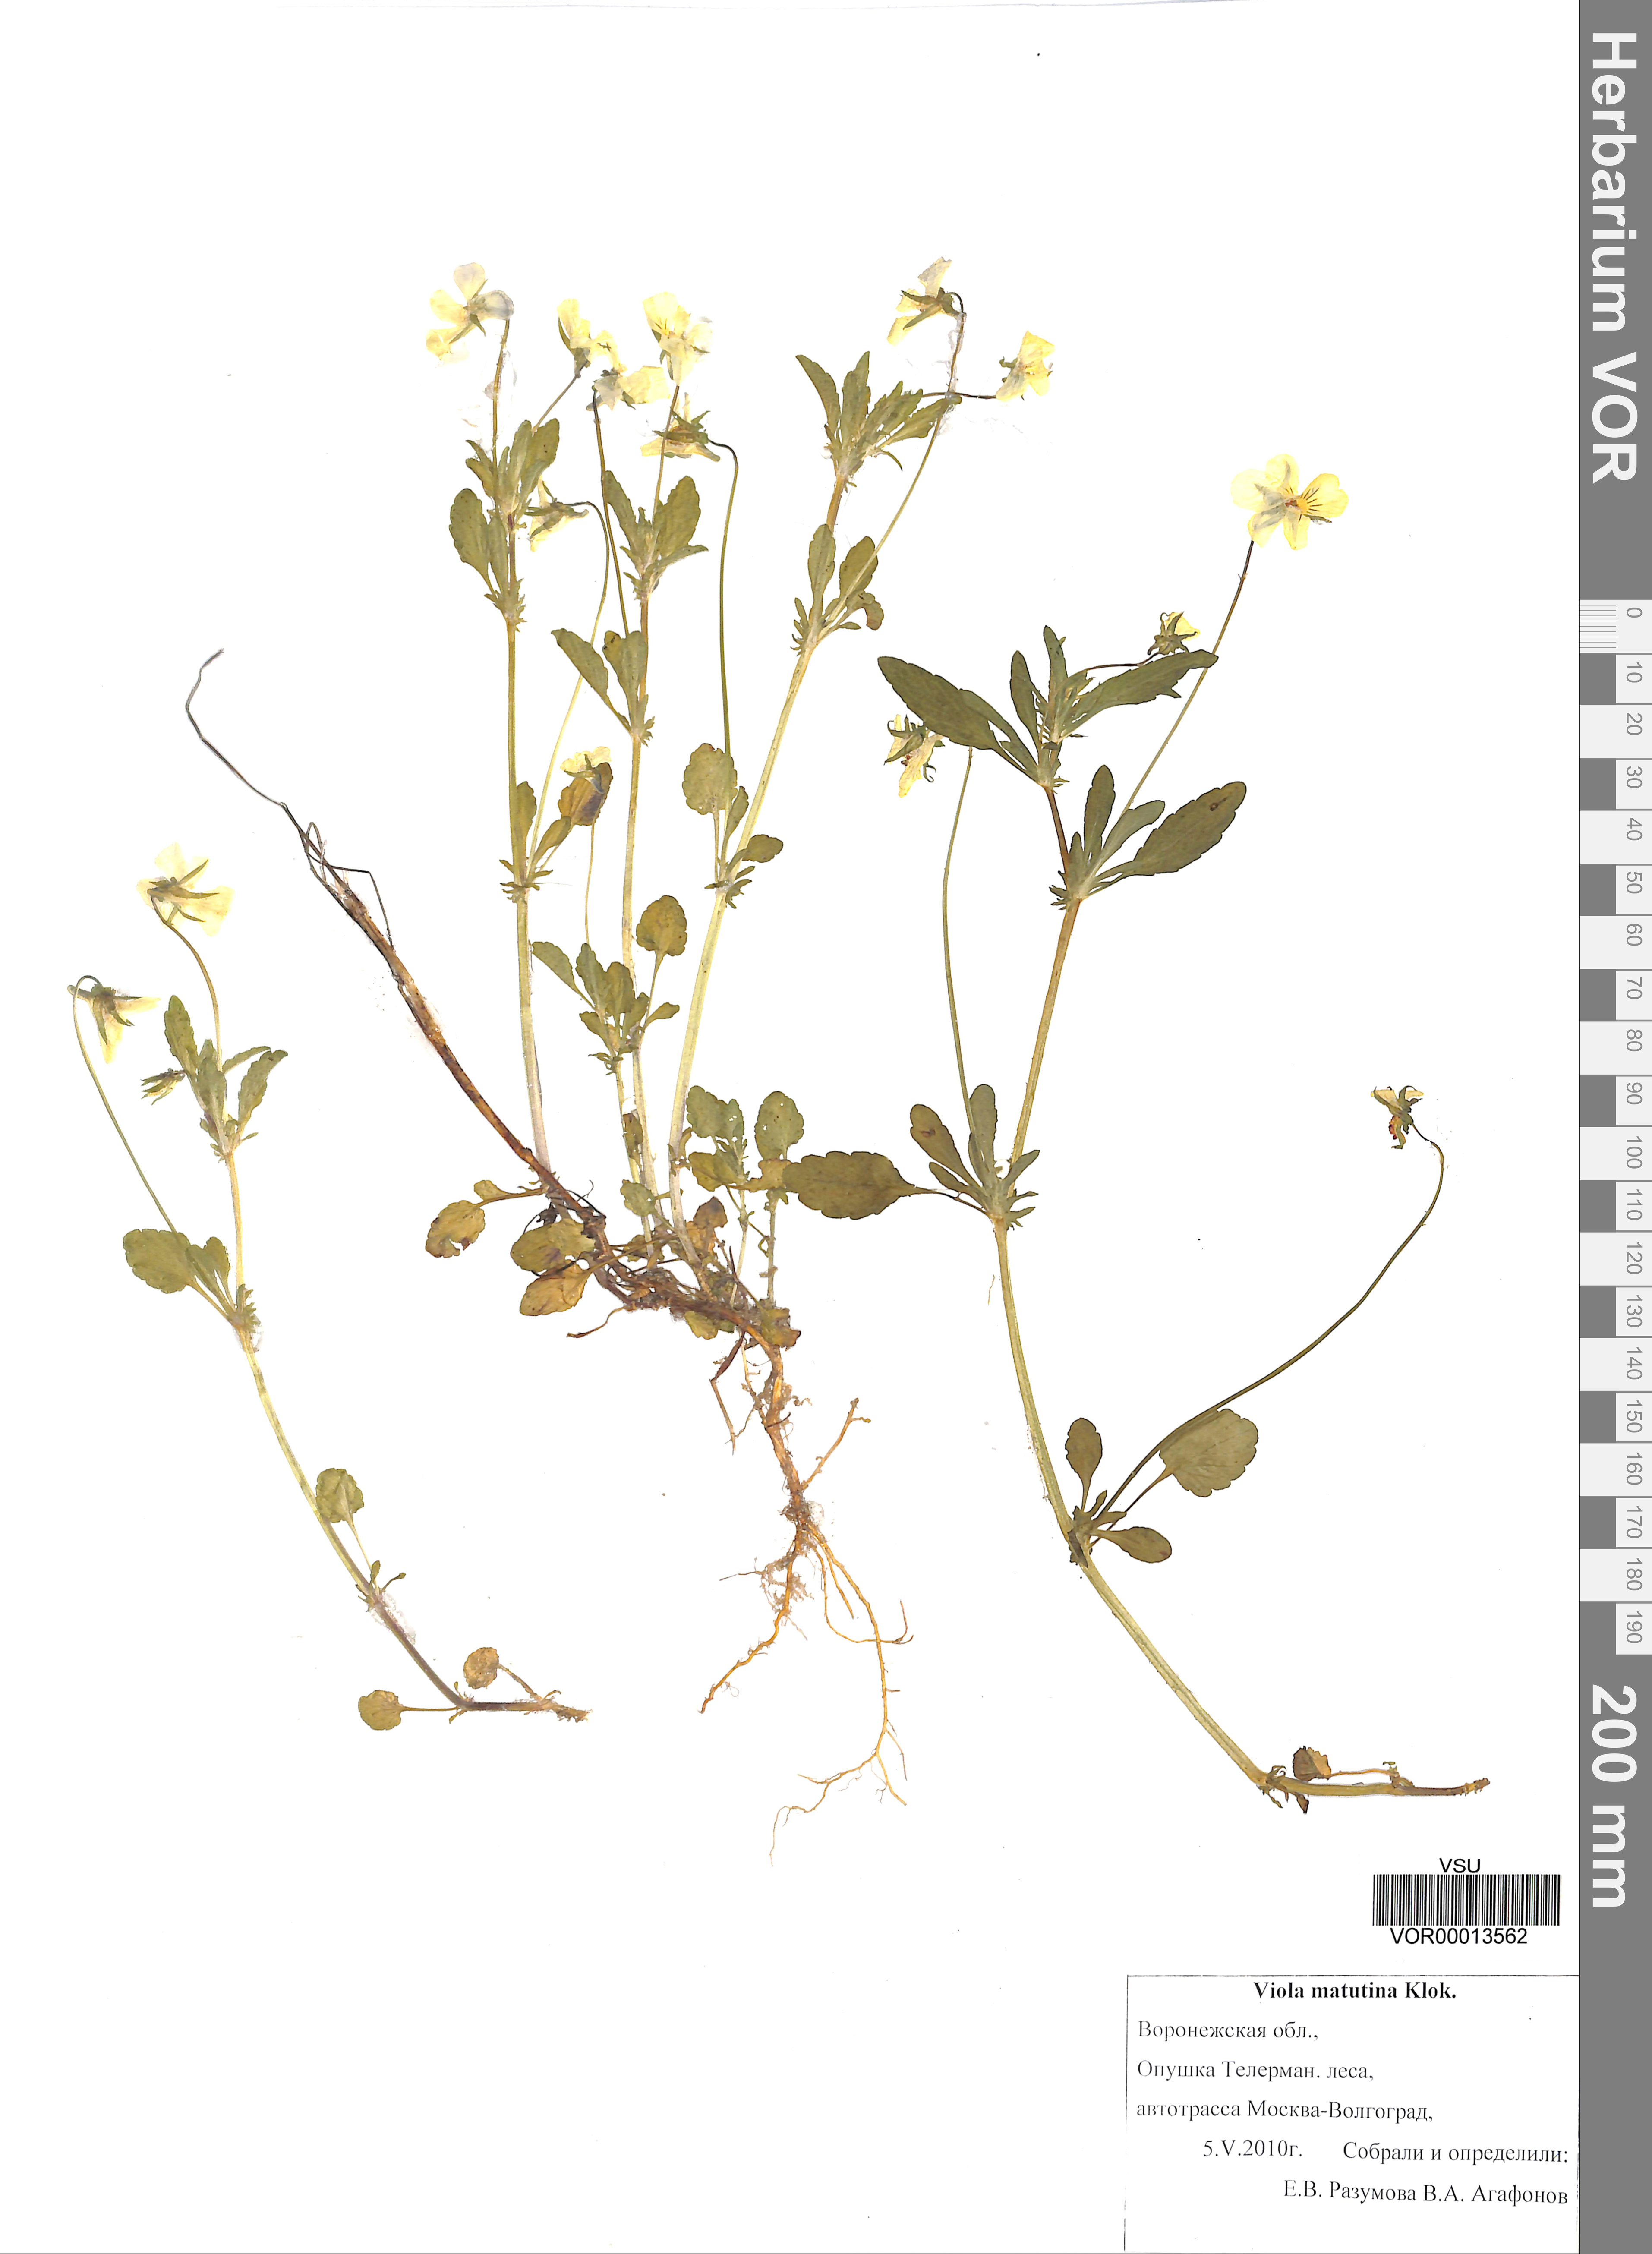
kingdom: Plantae
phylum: Tracheophyta
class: Magnoliopsida
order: Malpighiales
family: Violaceae
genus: Viola
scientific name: Viola tricolor
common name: Pansy
